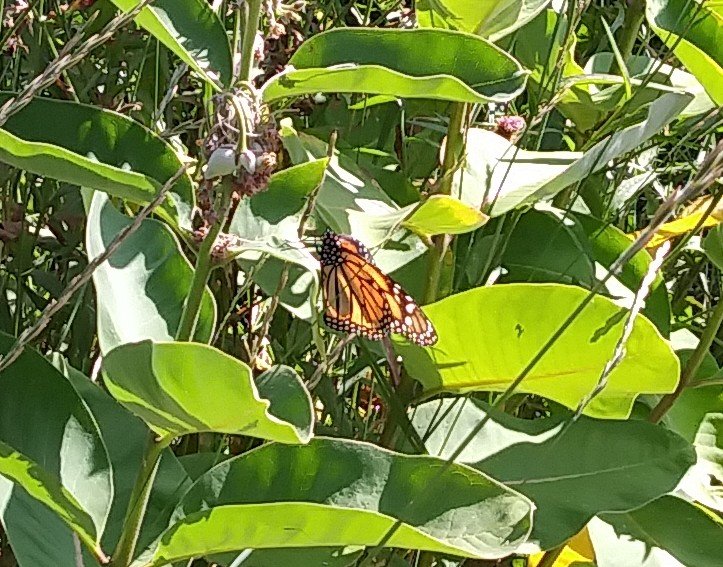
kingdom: Animalia
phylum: Arthropoda
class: Insecta
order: Lepidoptera
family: Nymphalidae
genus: Danaus
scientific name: Danaus plexippus
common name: Monarch
